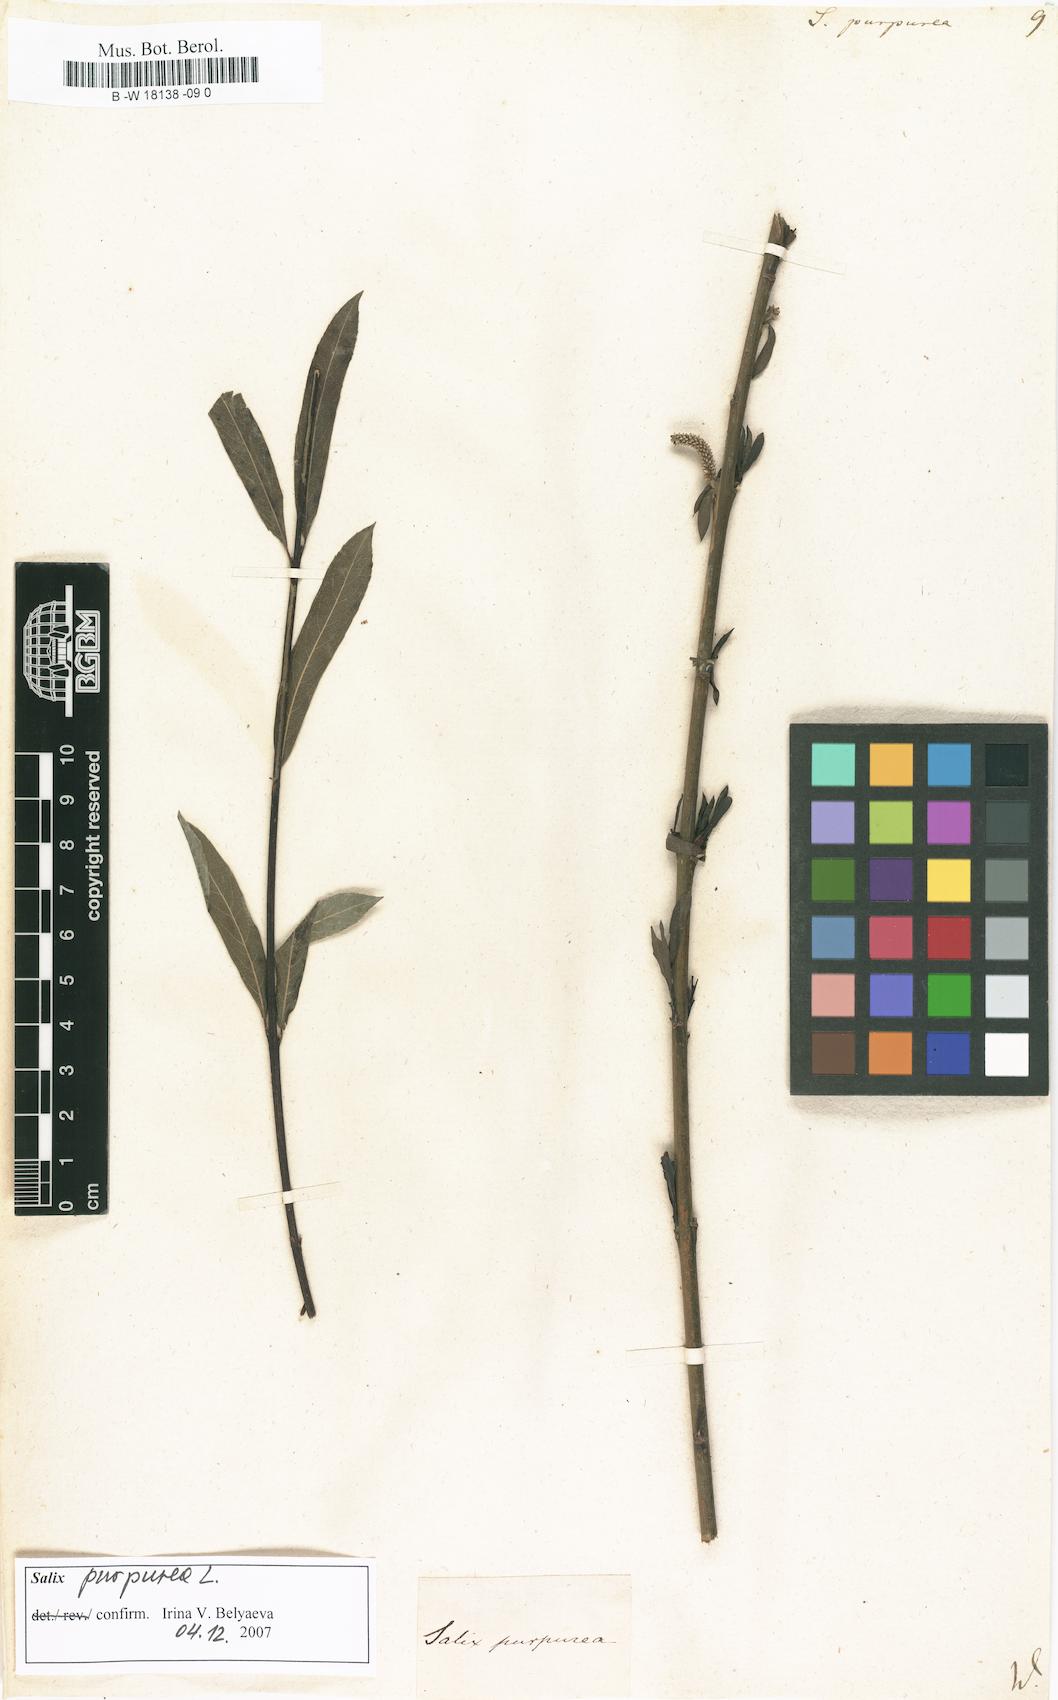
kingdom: Plantae
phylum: Tracheophyta
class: Magnoliopsida
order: Malpighiales
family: Salicaceae
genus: Salix
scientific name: Salix purpurea
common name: Purple willow
